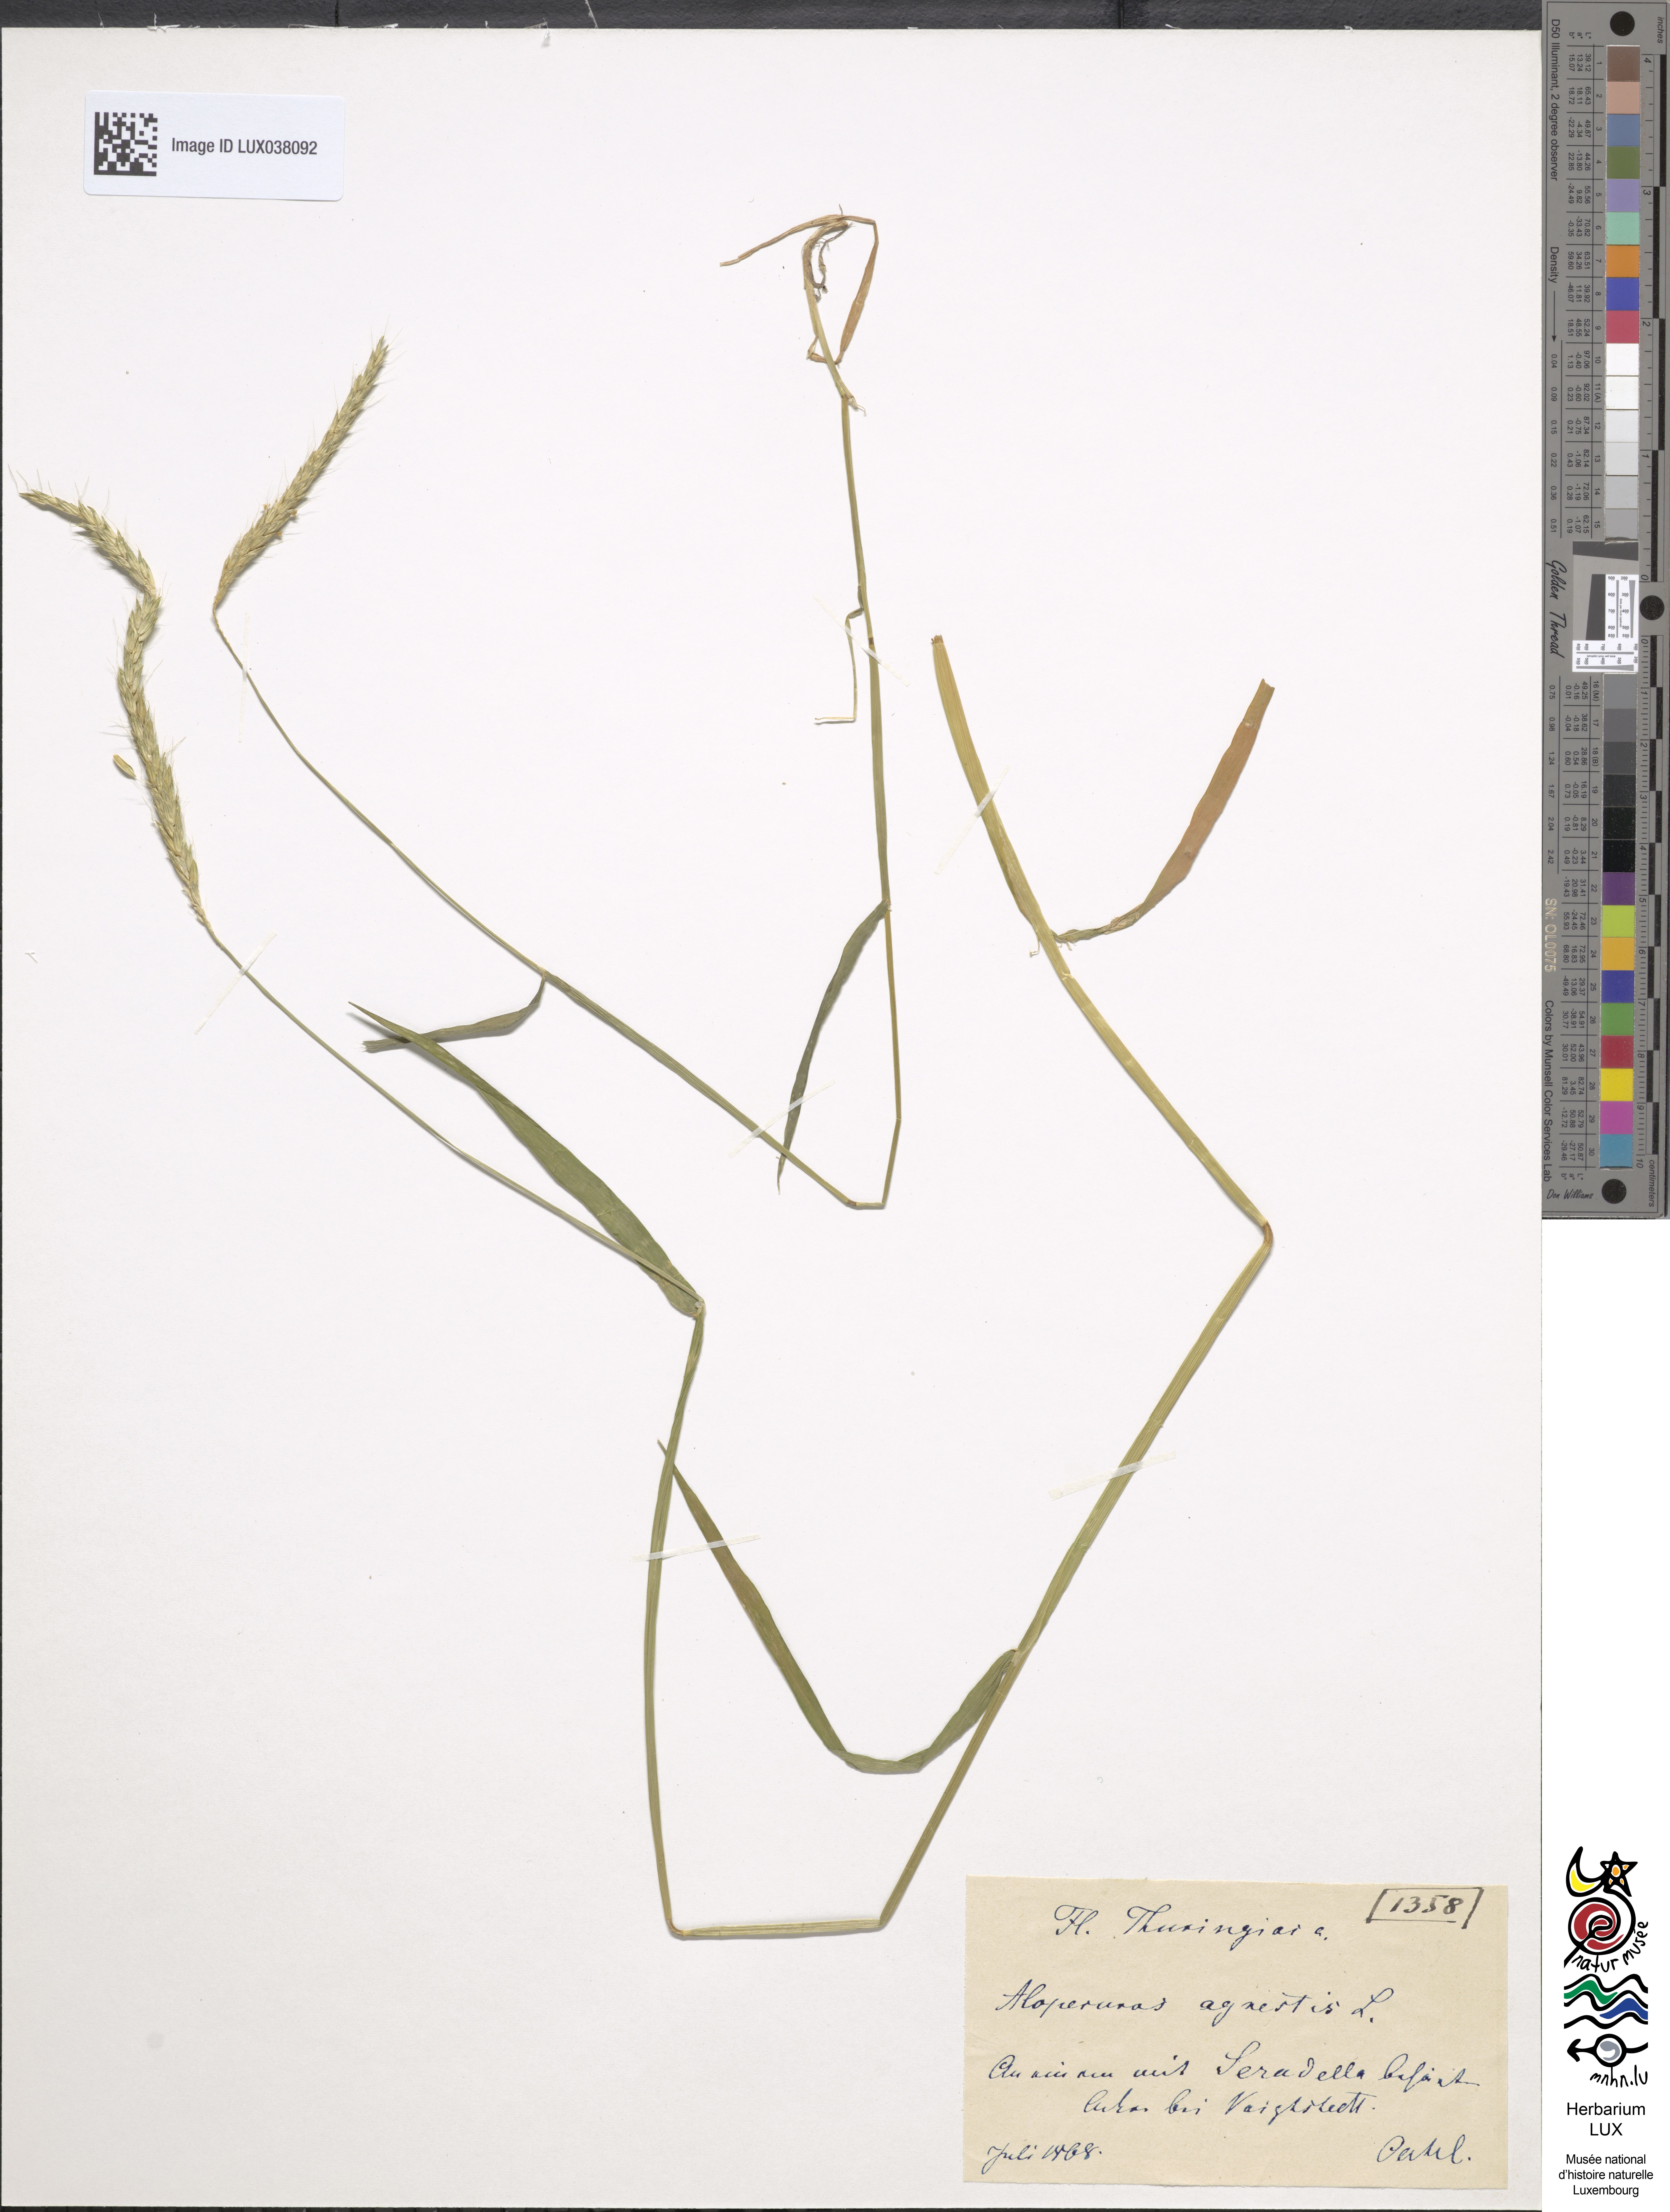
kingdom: Plantae
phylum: Tracheophyta
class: Liliopsida
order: Poales
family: Poaceae
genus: Alopecurus
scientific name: Alopecurus myosuroides
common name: Black-grass
